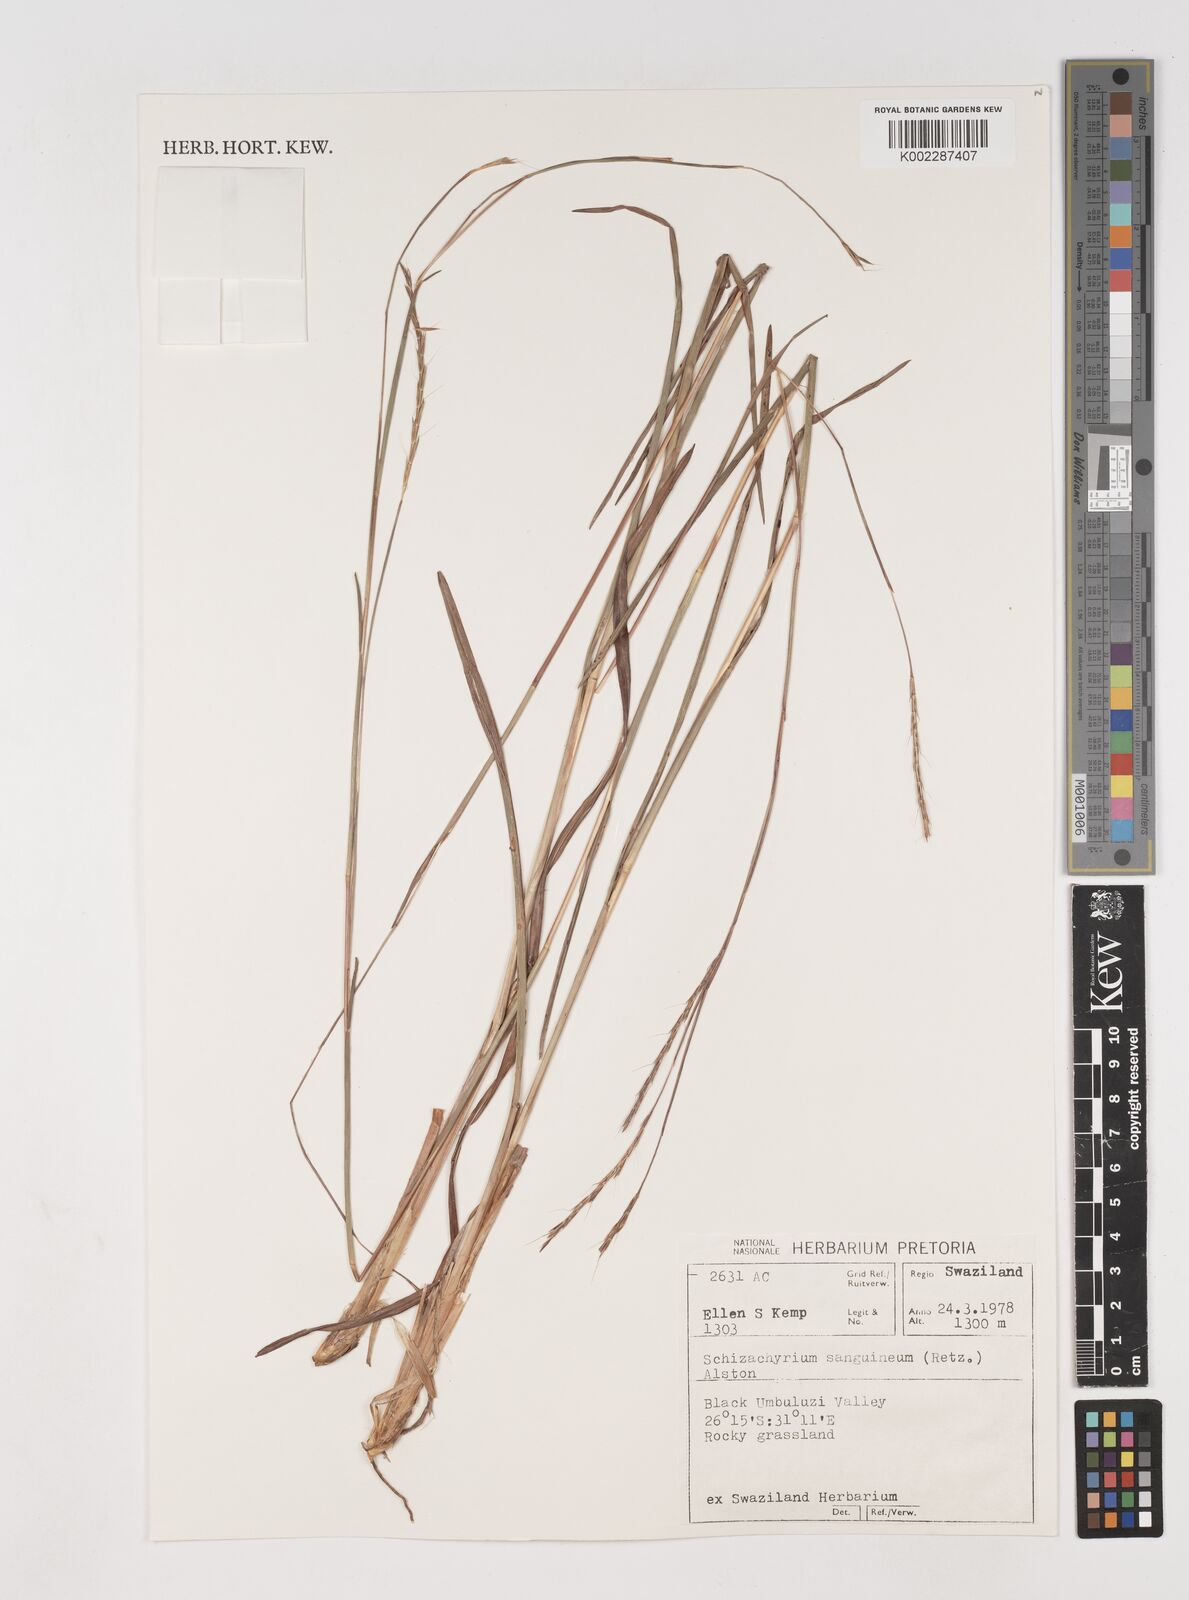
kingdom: Plantae
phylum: Tracheophyta
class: Liliopsida
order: Poales
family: Poaceae
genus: Schizachyrium
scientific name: Schizachyrium sanguineum
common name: Crimson bluestem
